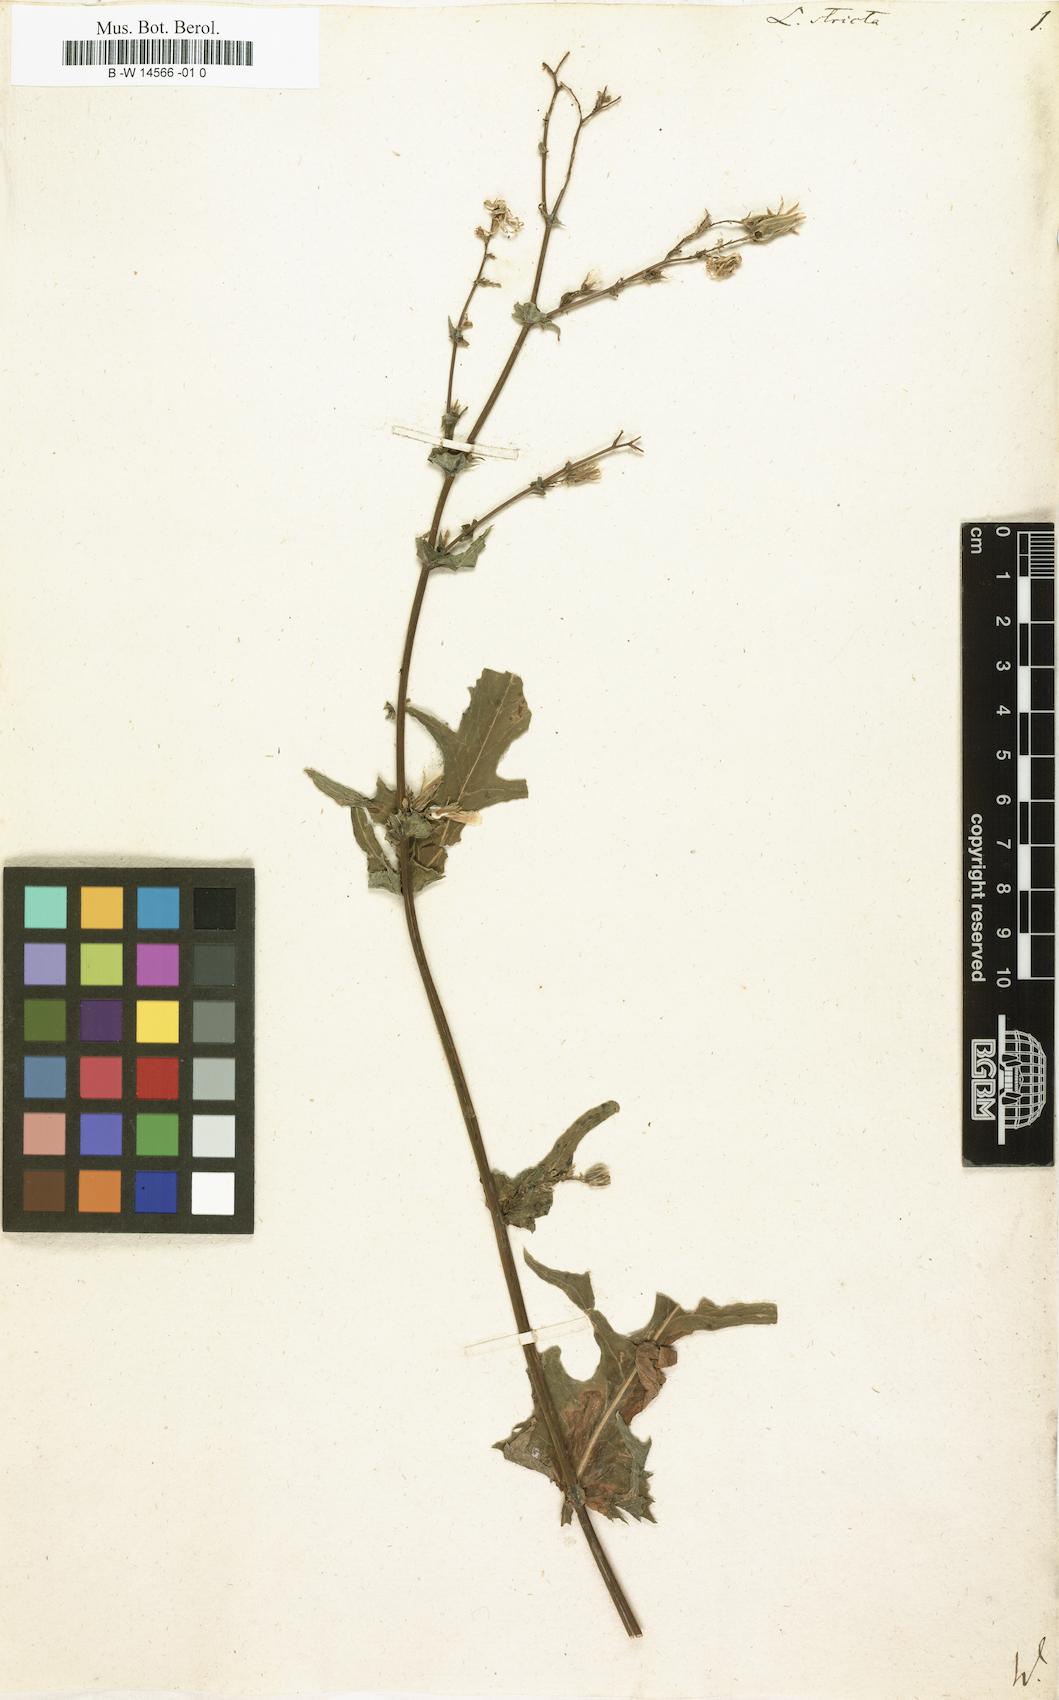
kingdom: Plantae
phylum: Tracheophyta
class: Magnoliopsida
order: Asterales
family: Asteraceae
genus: Lactuca
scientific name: Lactuca quercina
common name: Wild lettuce
